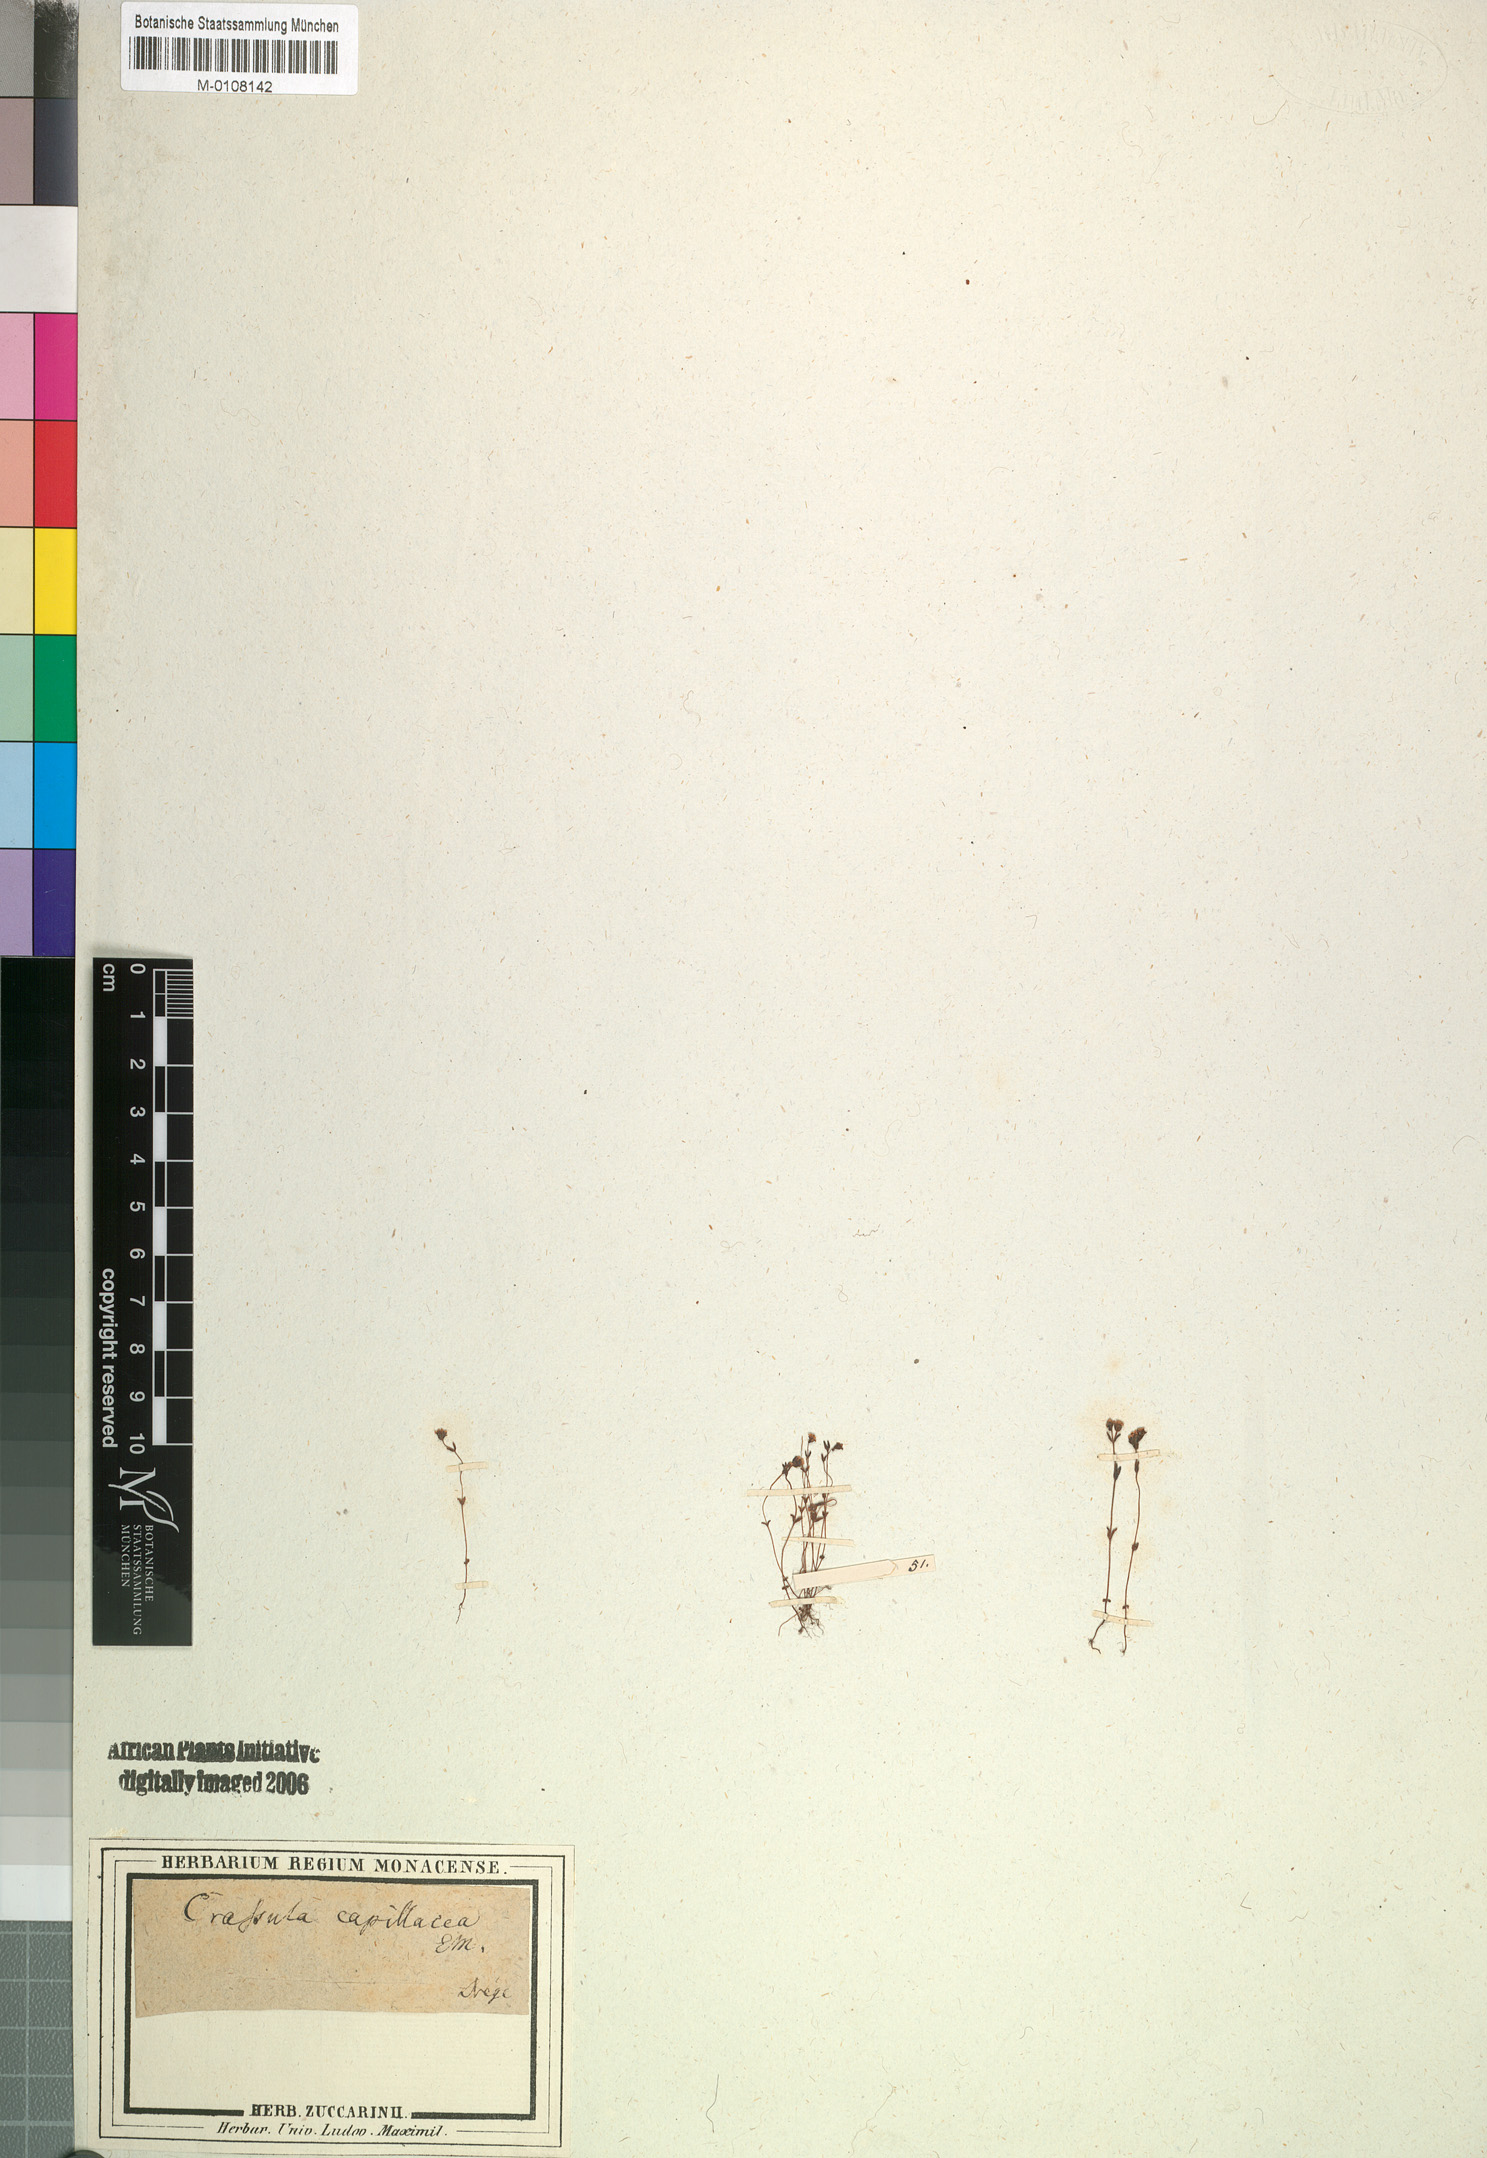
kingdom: Plantae
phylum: Tracheophyta
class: Magnoliopsida
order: Saxifragales
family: Crassulaceae
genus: Crassula
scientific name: Crassula glomerata
